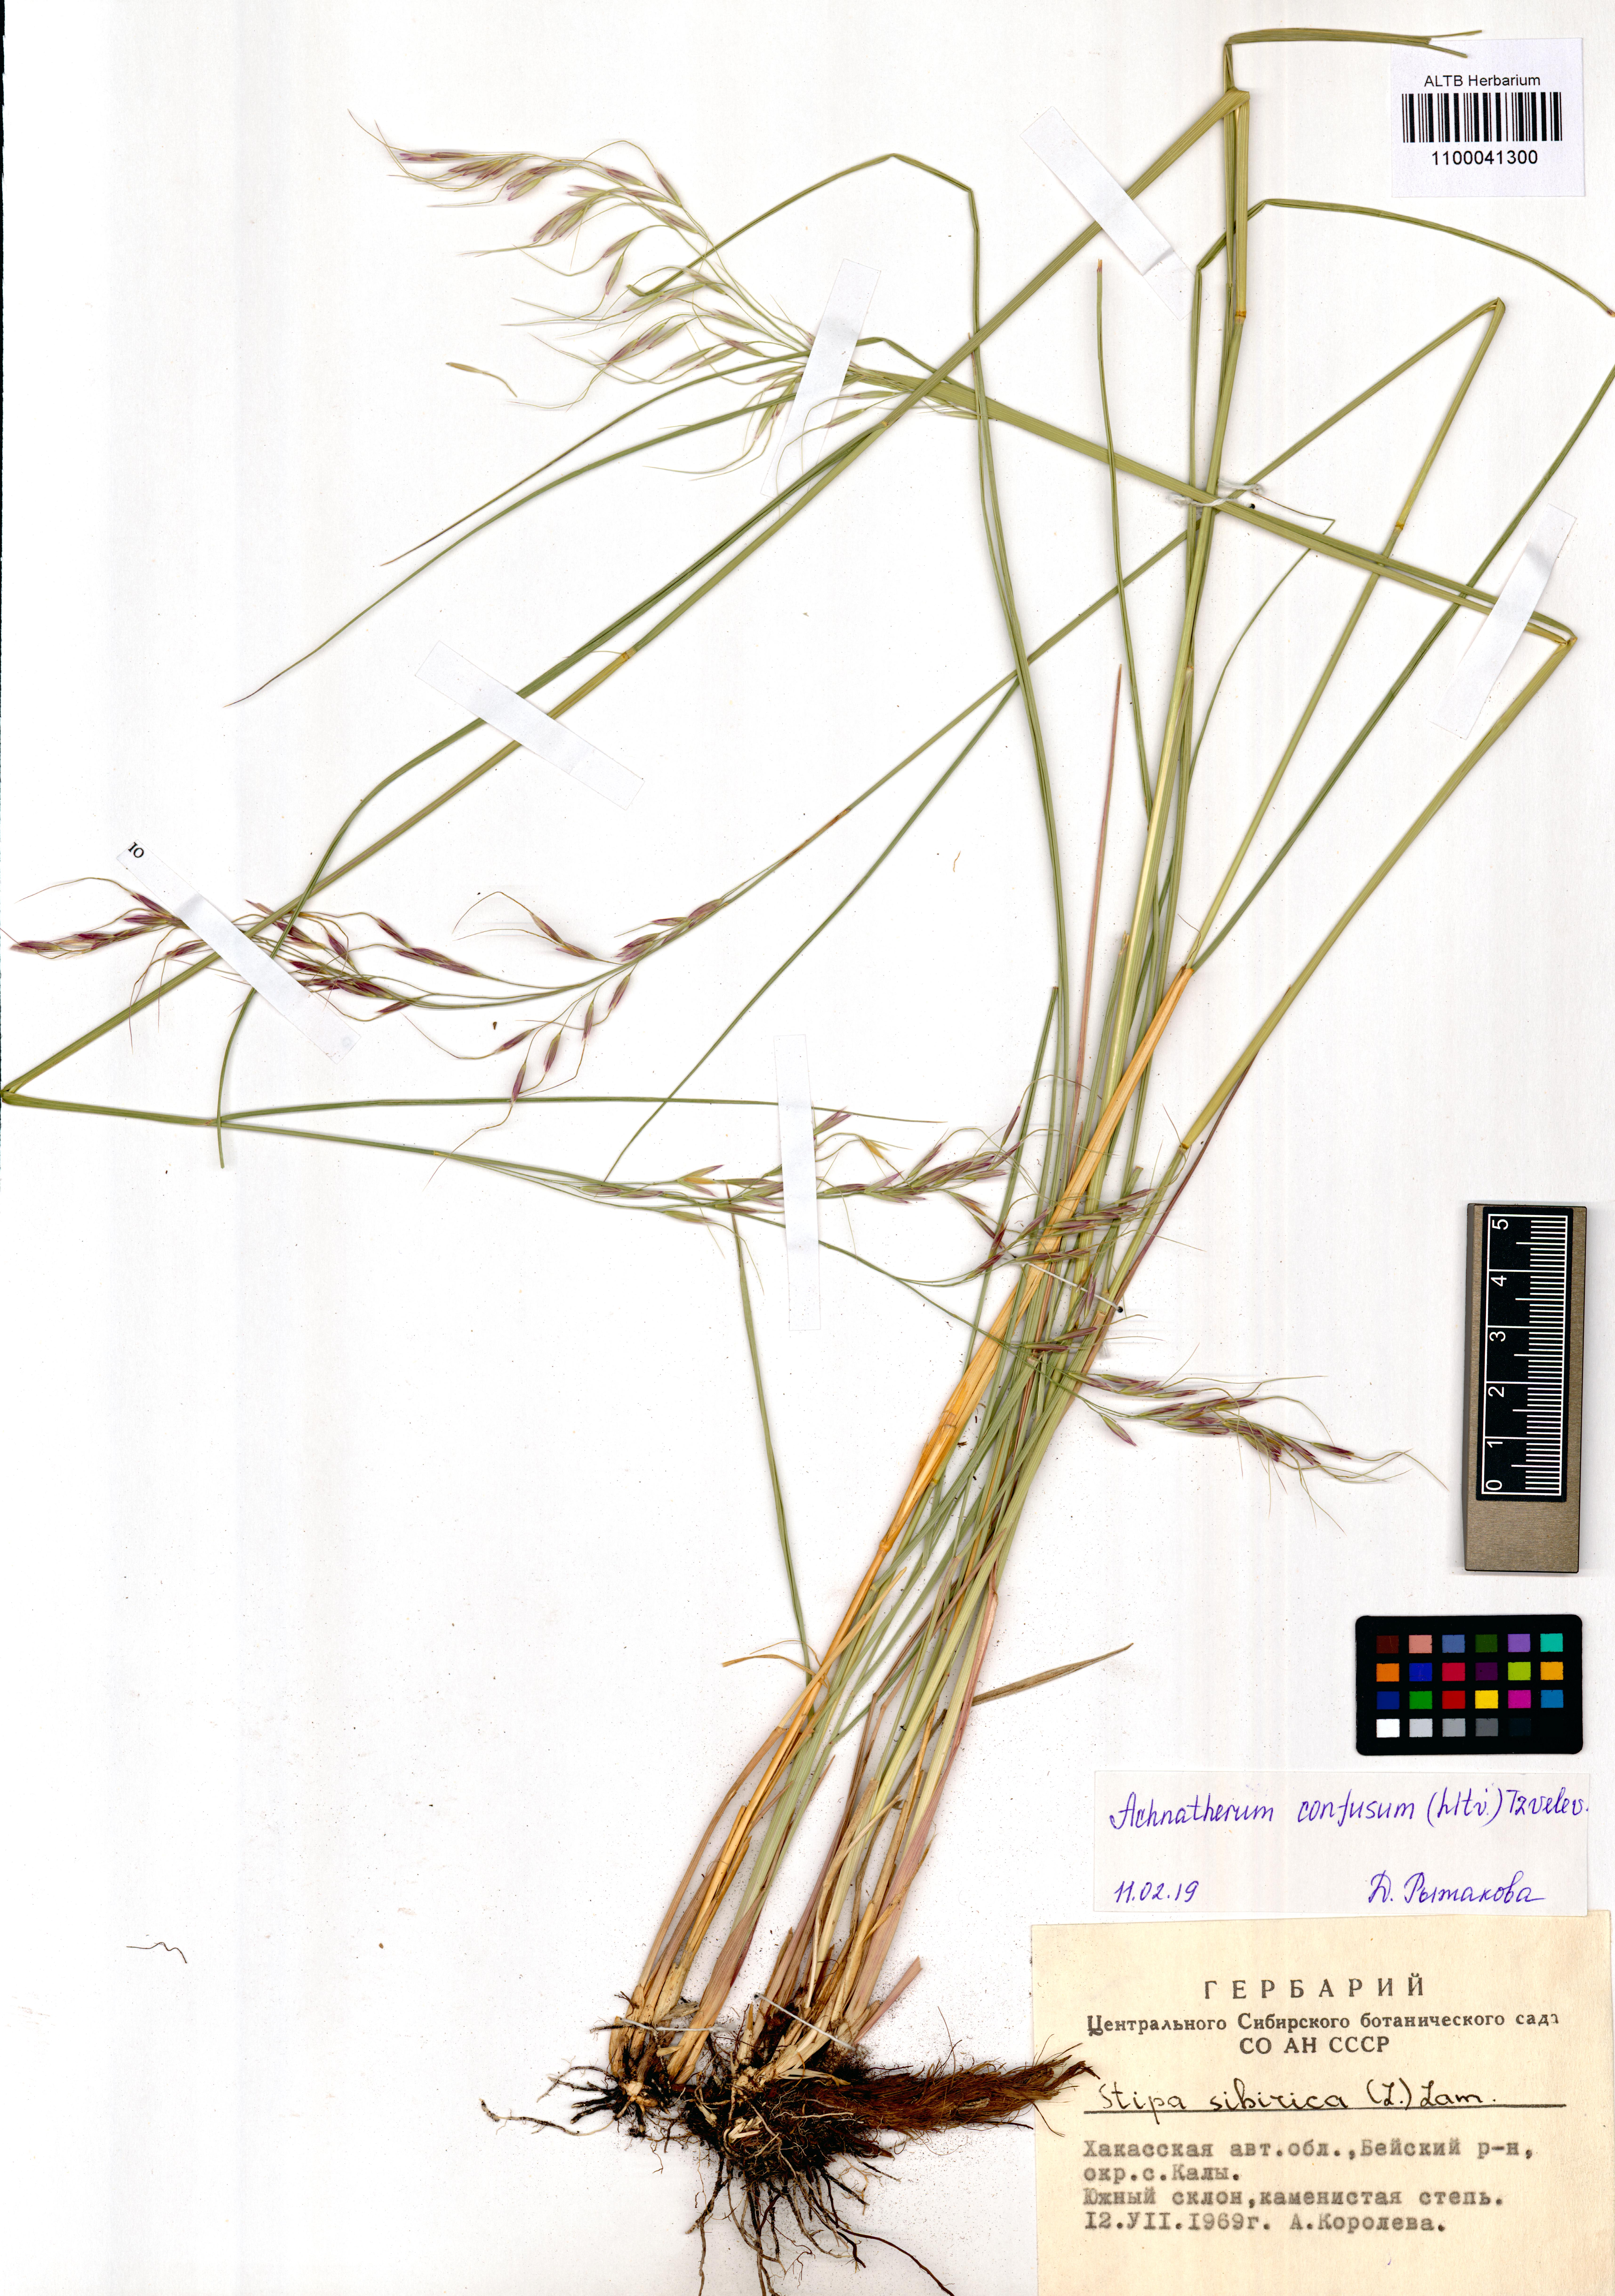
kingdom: Plantae
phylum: Tracheophyta
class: Liliopsida
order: Poales
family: Poaceae
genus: Achnatherum
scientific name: Achnatherum confusum
